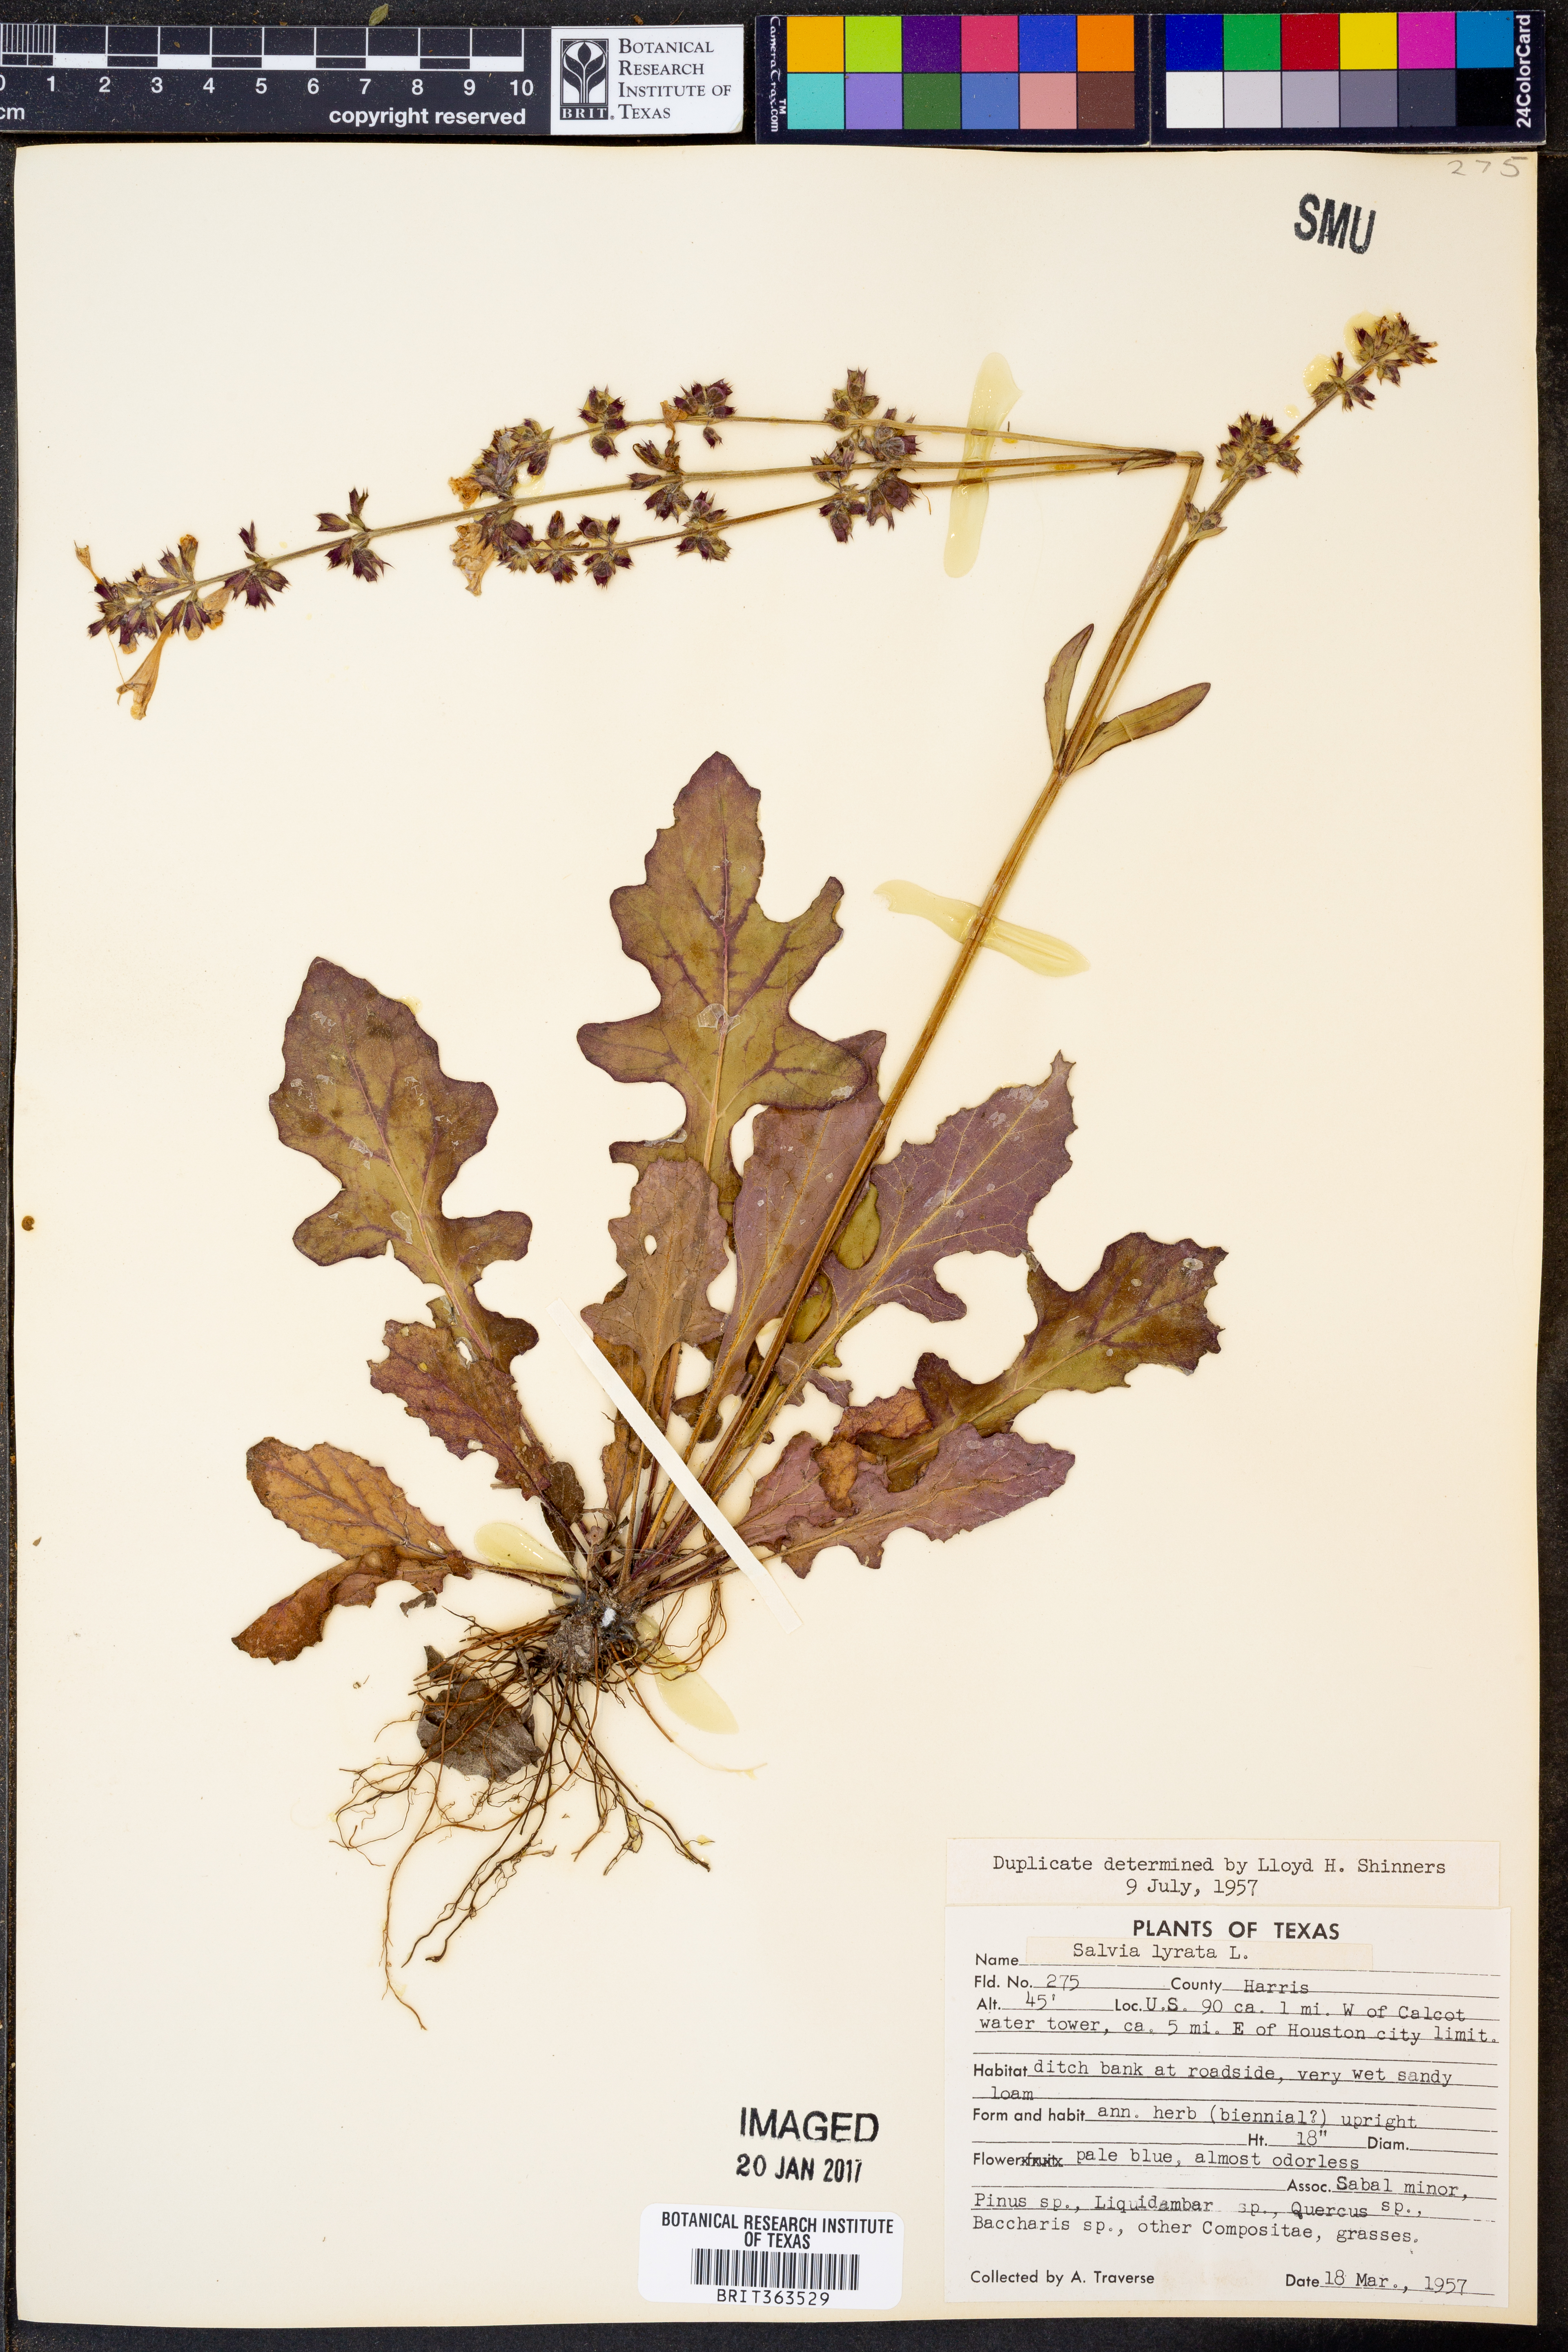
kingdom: Plantae
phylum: Tracheophyta
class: Magnoliopsida
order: Lamiales
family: Lamiaceae
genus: Salvia
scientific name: Salvia lyrata
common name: Cancerweed
